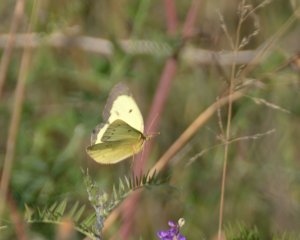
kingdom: Animalia
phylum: Arthropoda
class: Insecta
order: Lepidoptera
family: Pieridae
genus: Colias
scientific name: Colias philodice
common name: Clouded Sulphur
